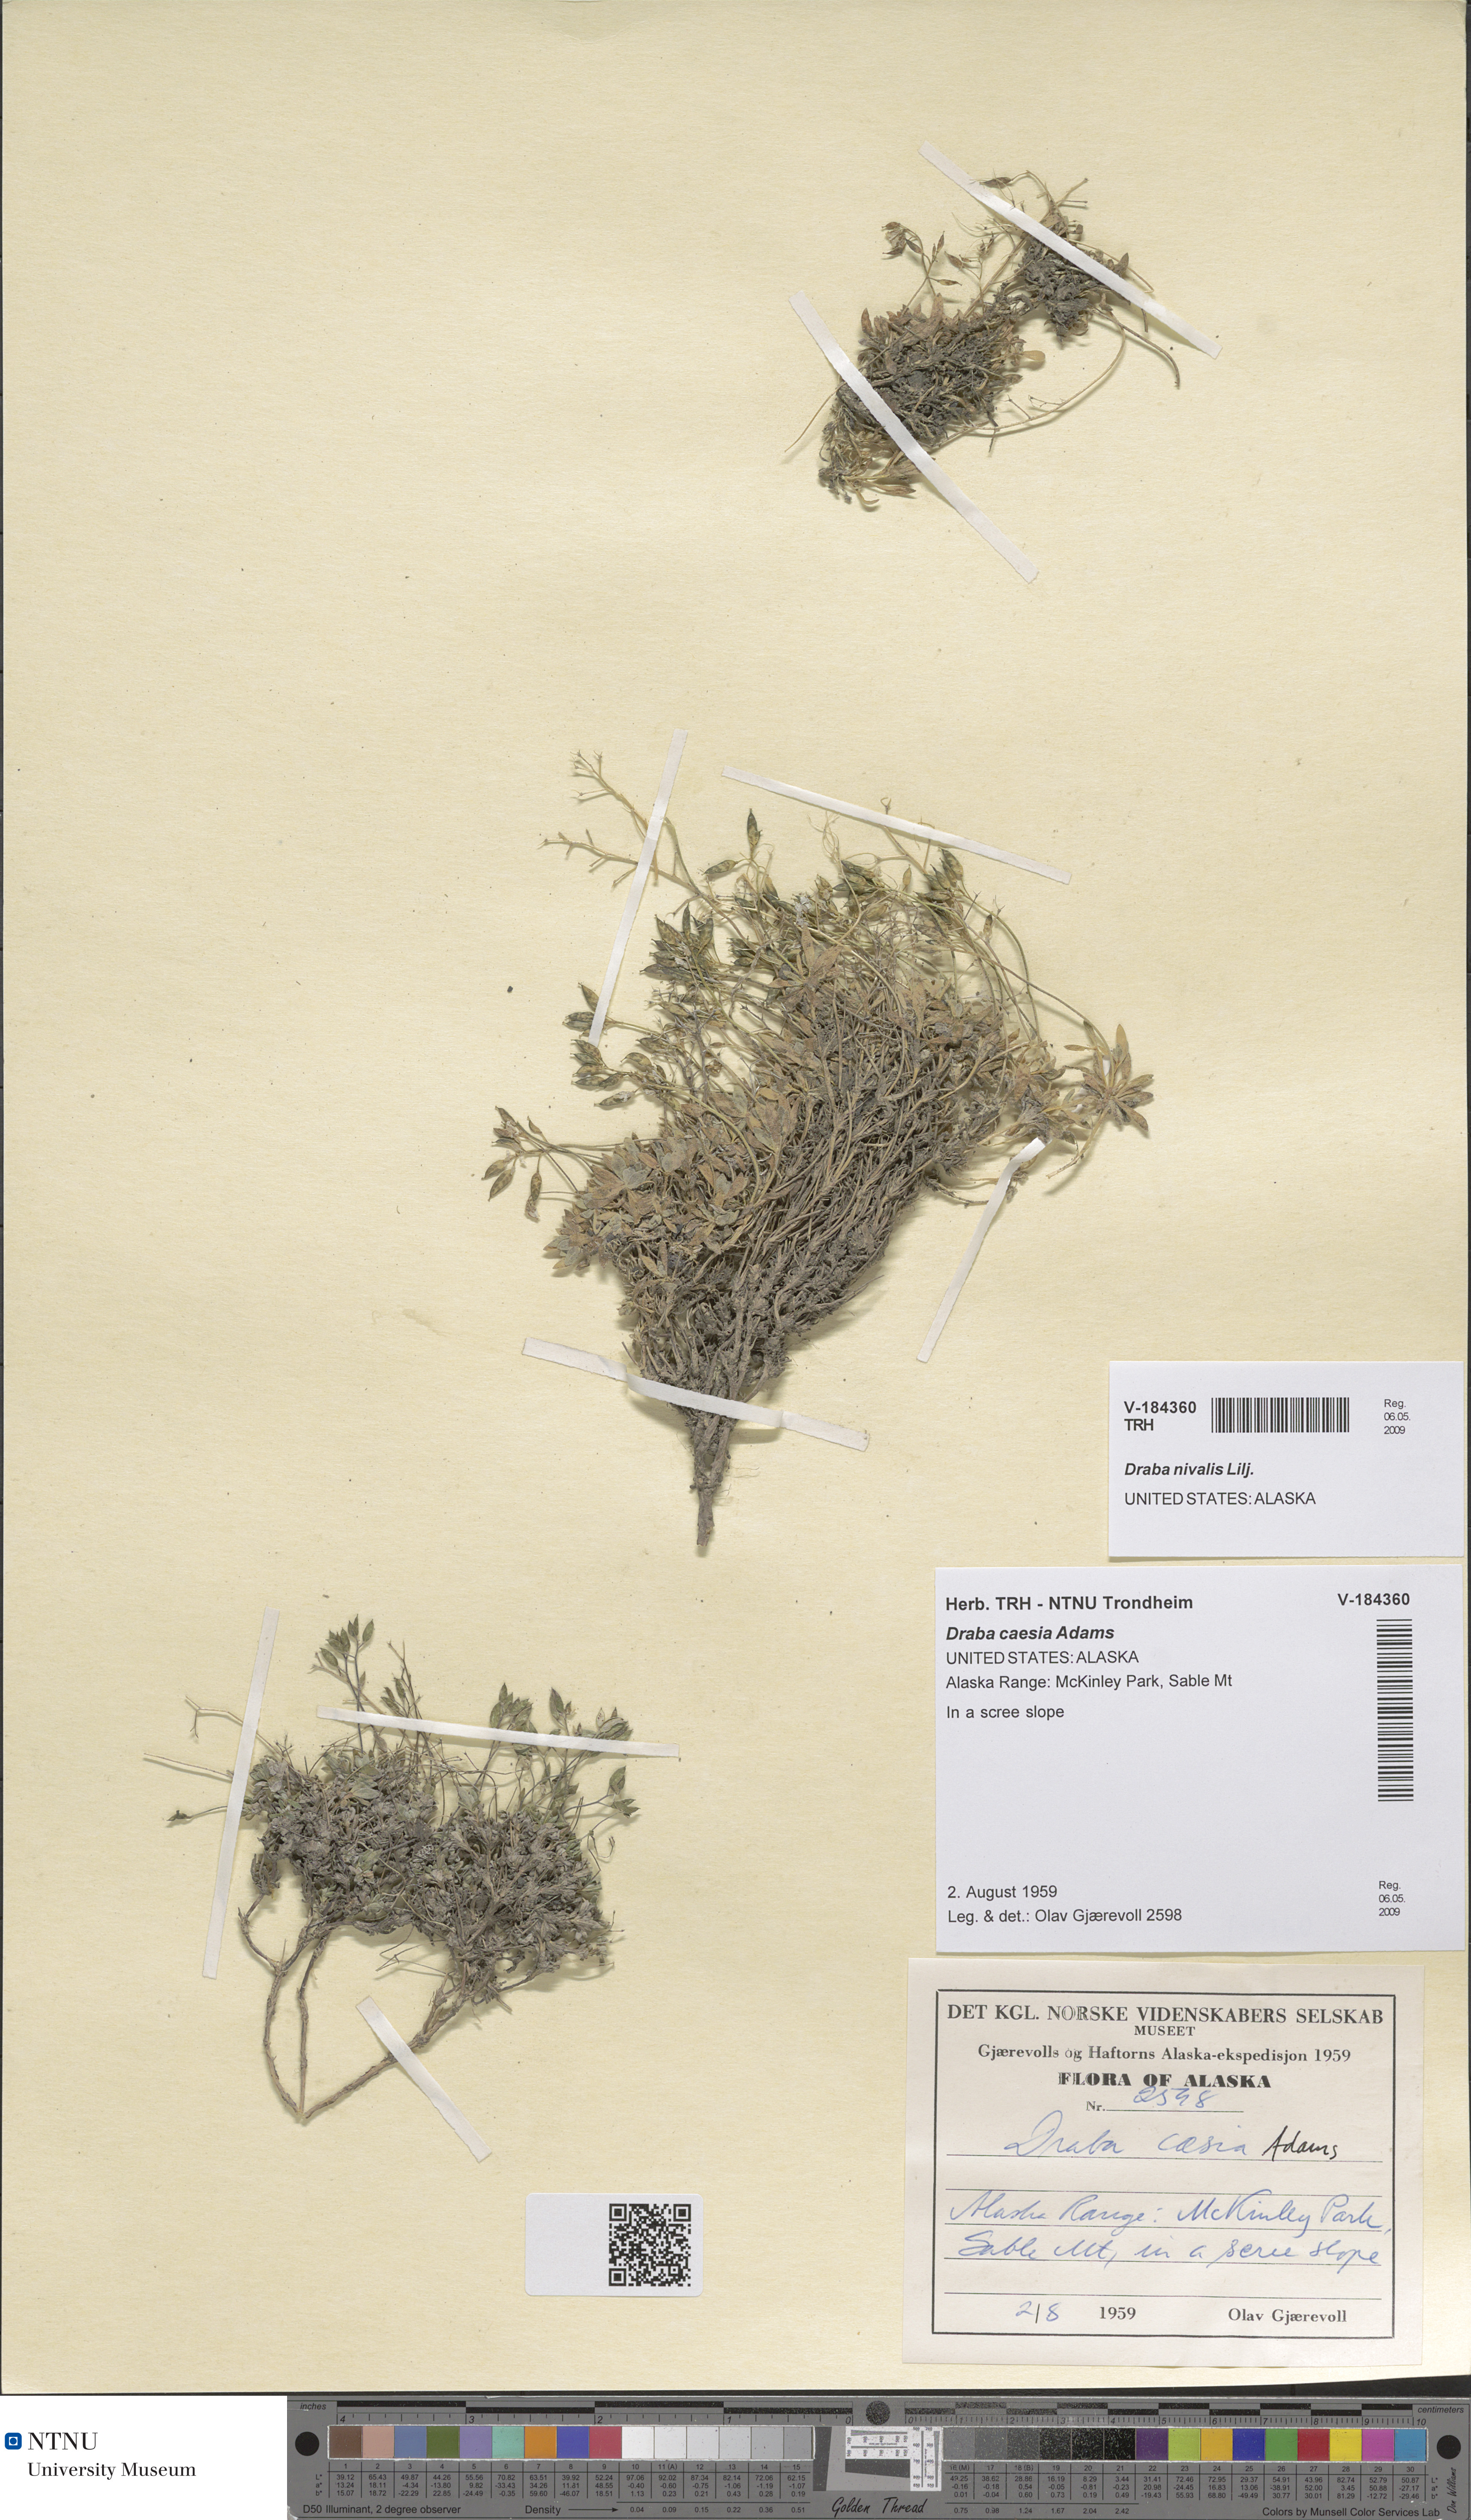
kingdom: Plantae
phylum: Tracheophyta
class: Magnoliopsida
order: Brassicales
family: Brassicaceae
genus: Draba
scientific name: Draba nivalis
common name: Snow draba
